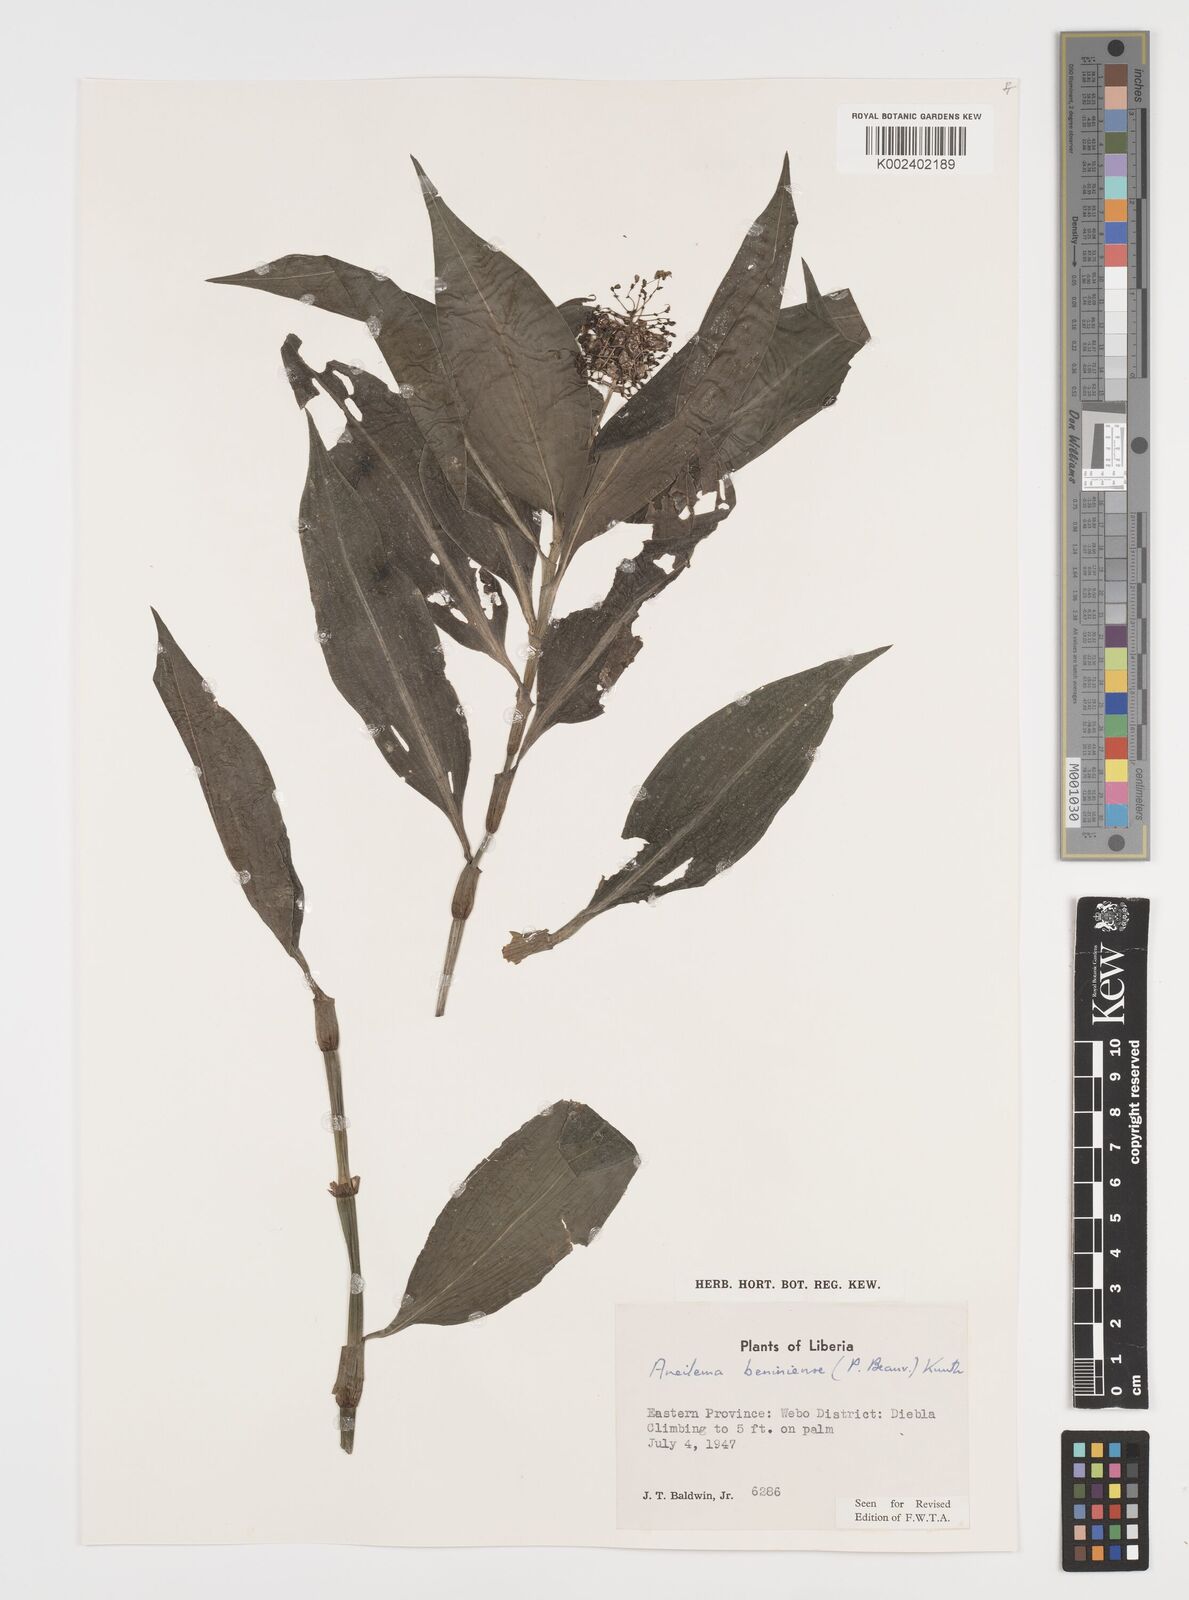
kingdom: Plantae
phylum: Tracheophyta
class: Liliopsida
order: Commelinales
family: Commelinaceae
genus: Aneilema
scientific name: Aneilema beniniense
